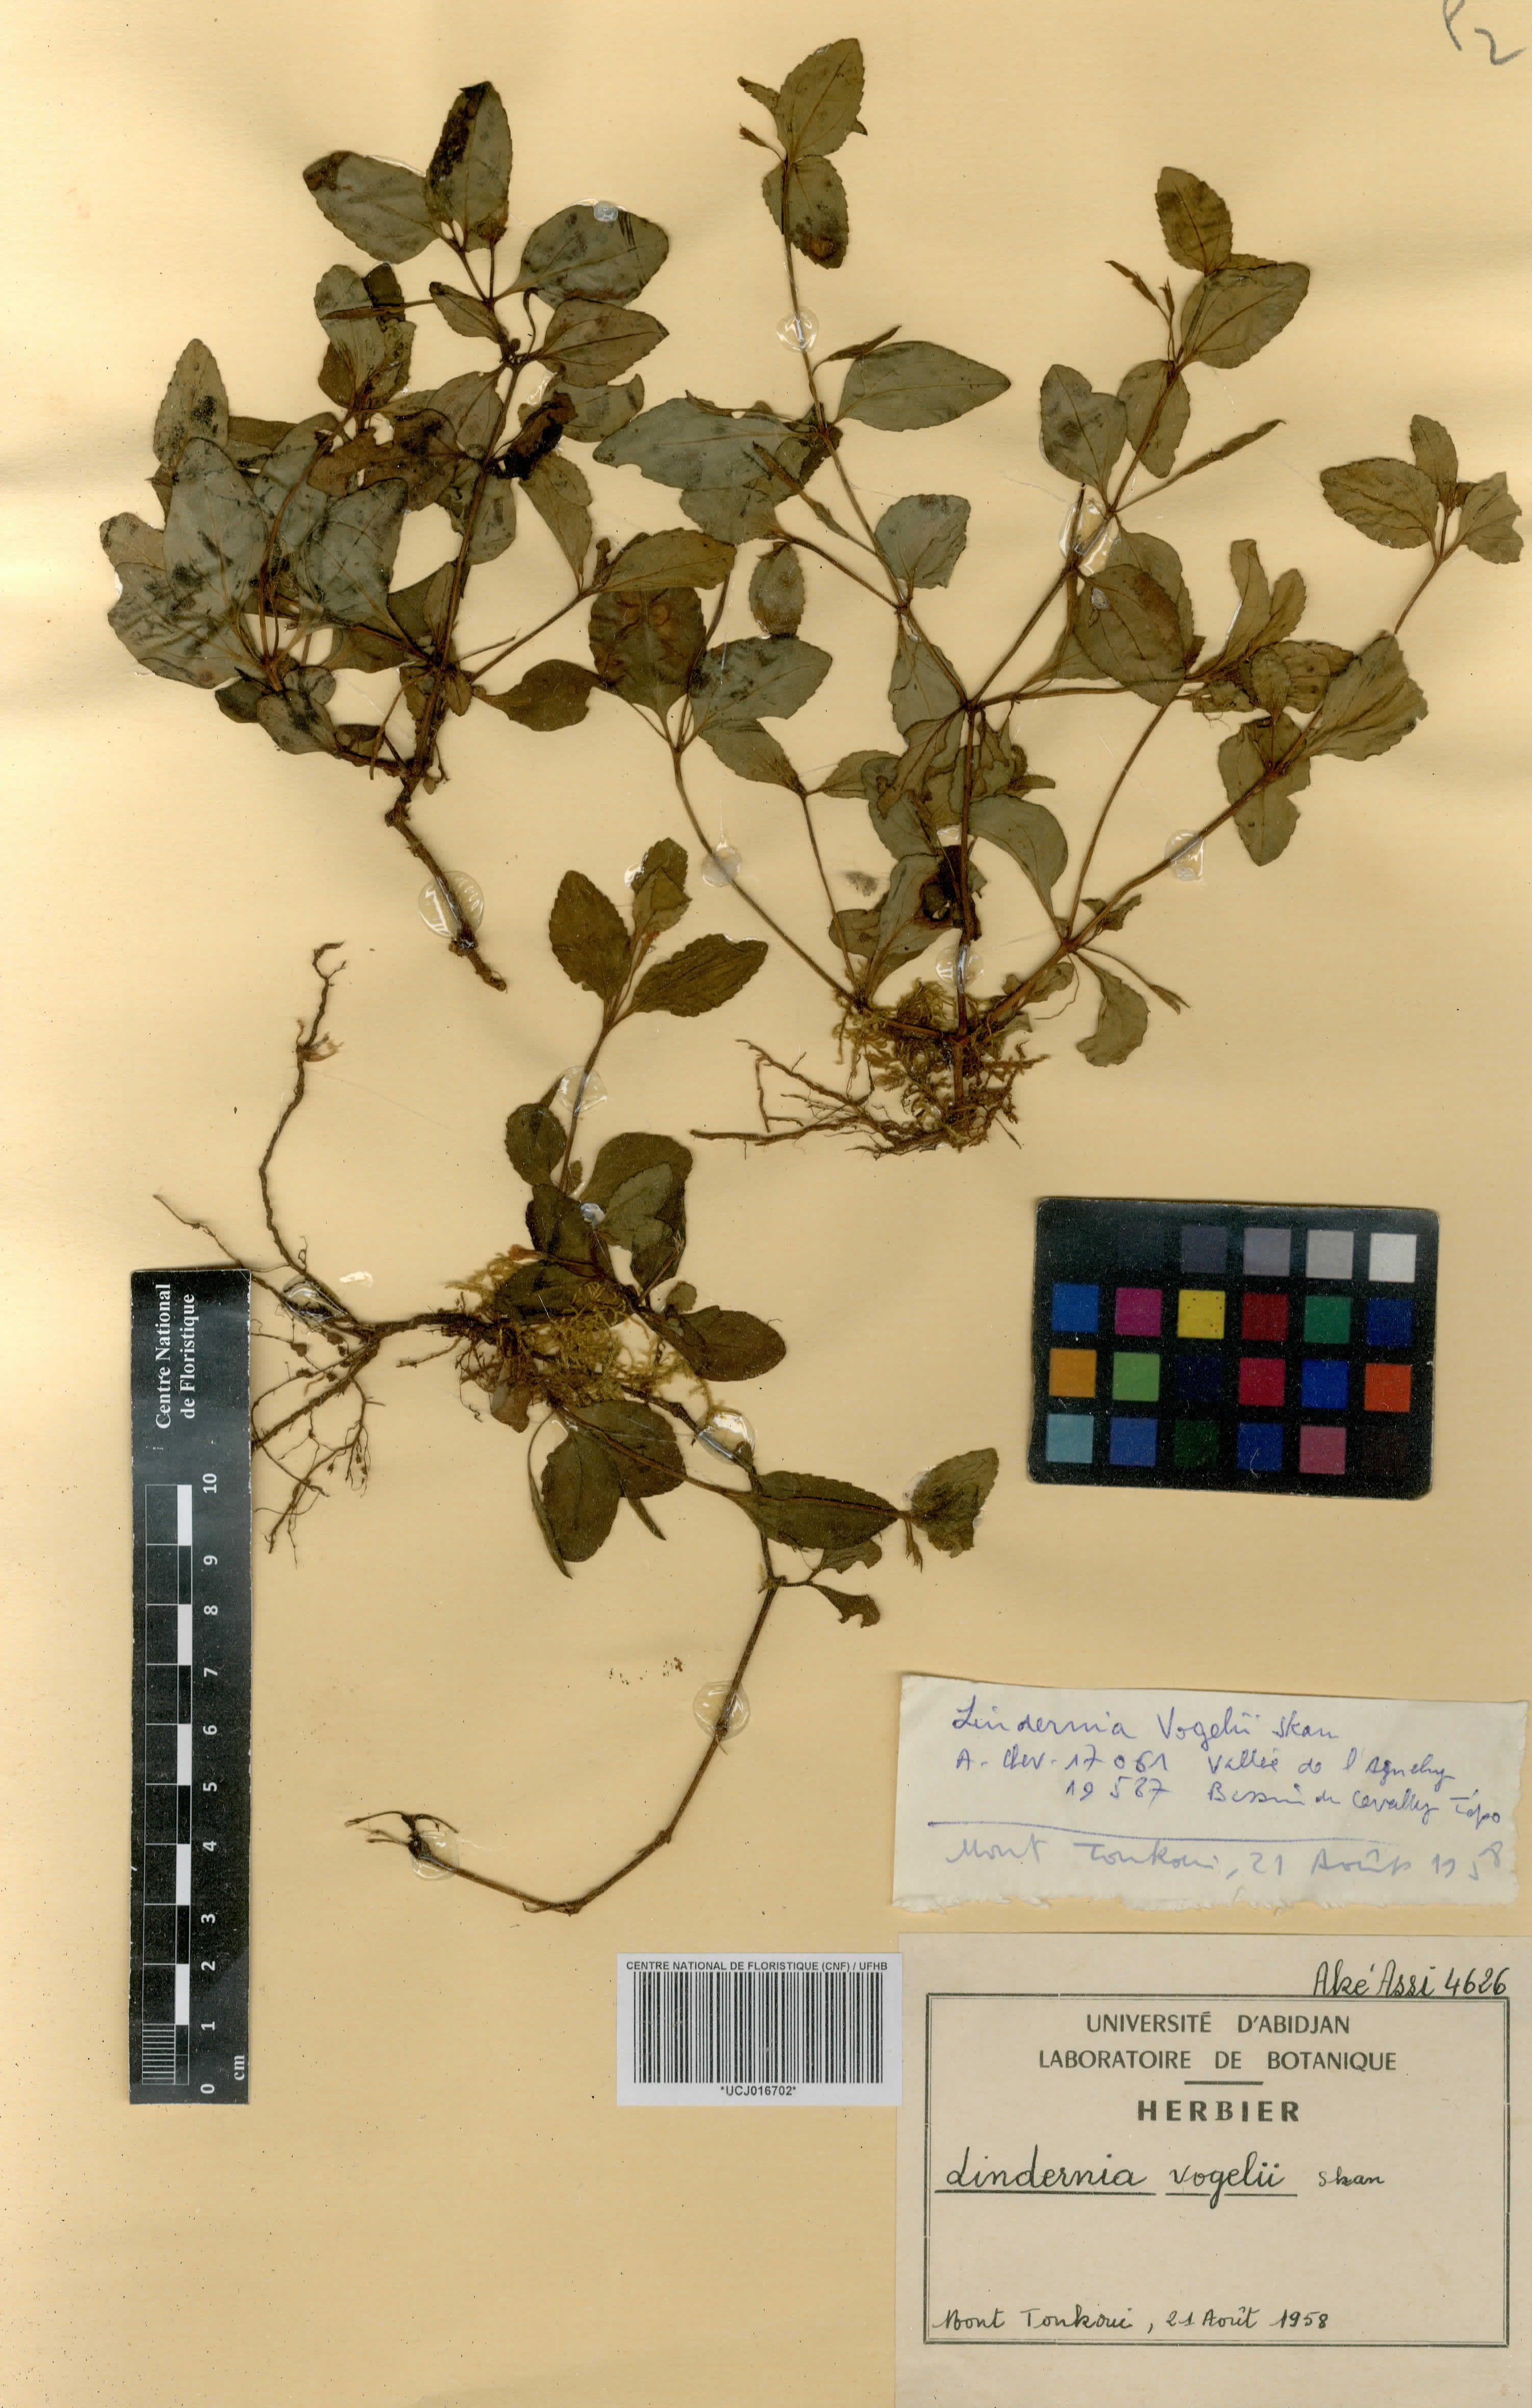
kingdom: Plantae
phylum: Tracheophyta
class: Magnoliopsida
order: Lamiales
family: Linderniaceae
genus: Vandellia
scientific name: Vandellia vogelii
